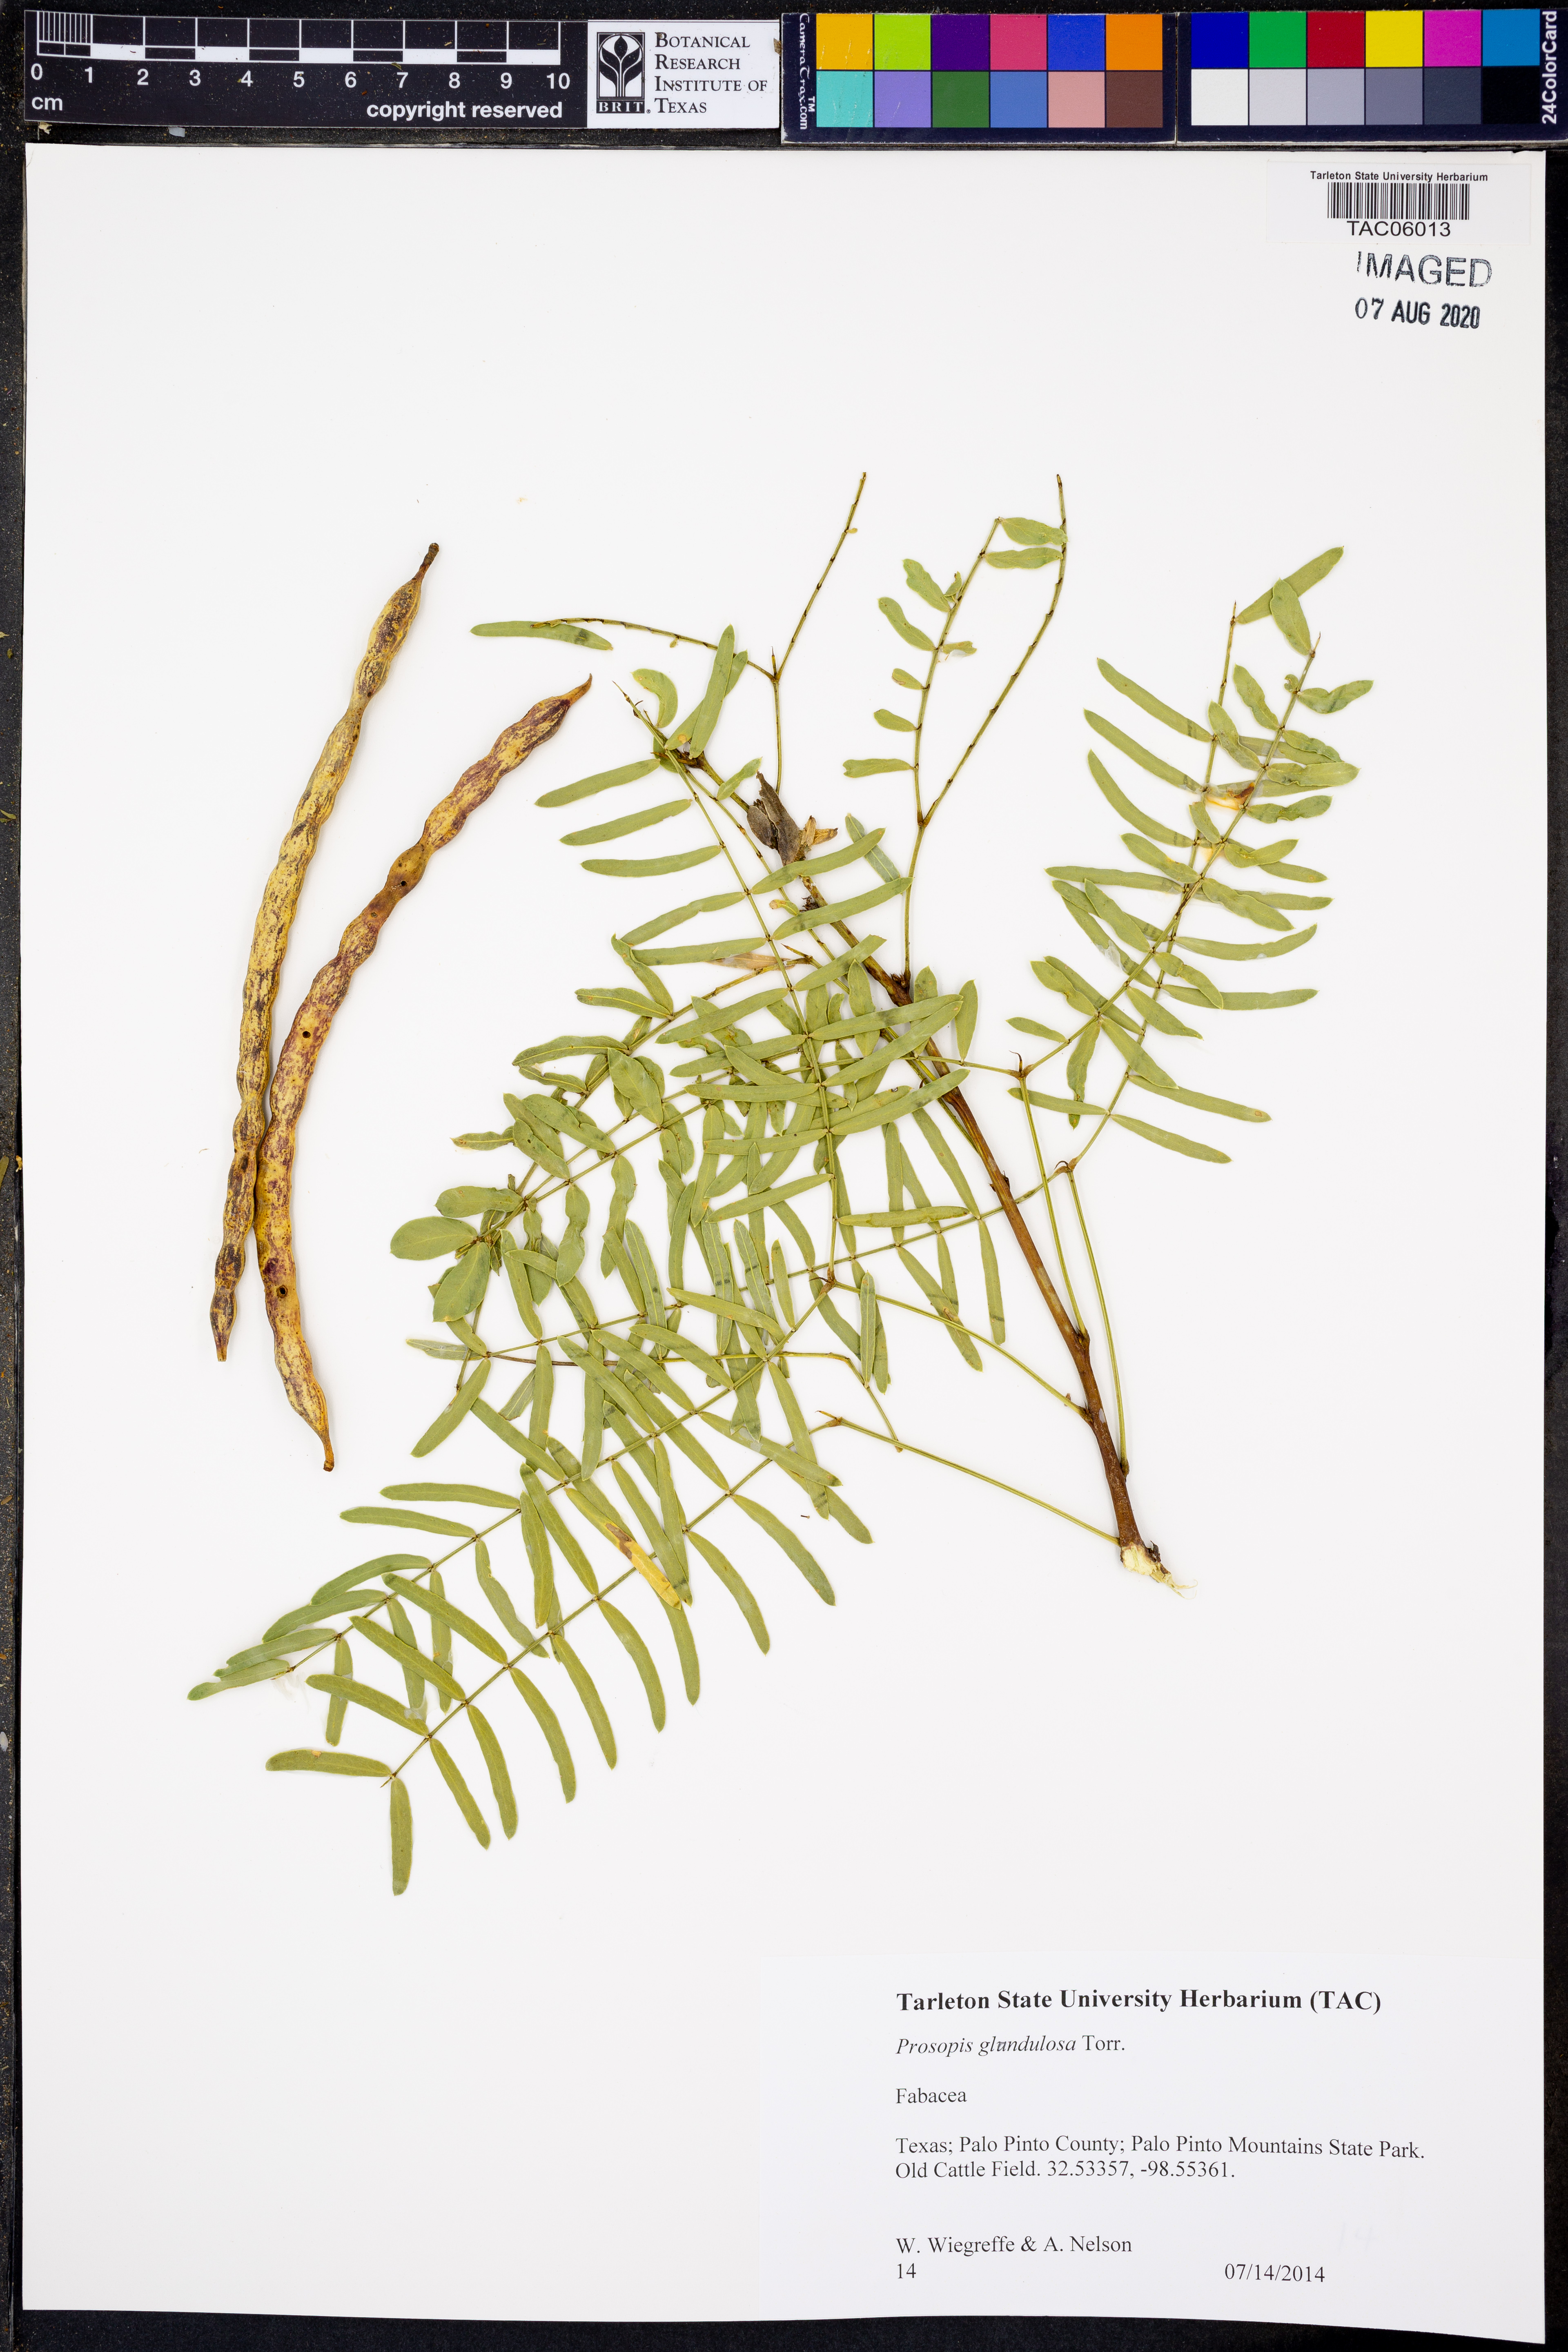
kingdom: Plantae
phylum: Tracheophyta
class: Magnoliopsida
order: Fabales
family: Fabaceae
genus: Prosopis
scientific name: Prosopis glandulosa
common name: Honey mesquite
